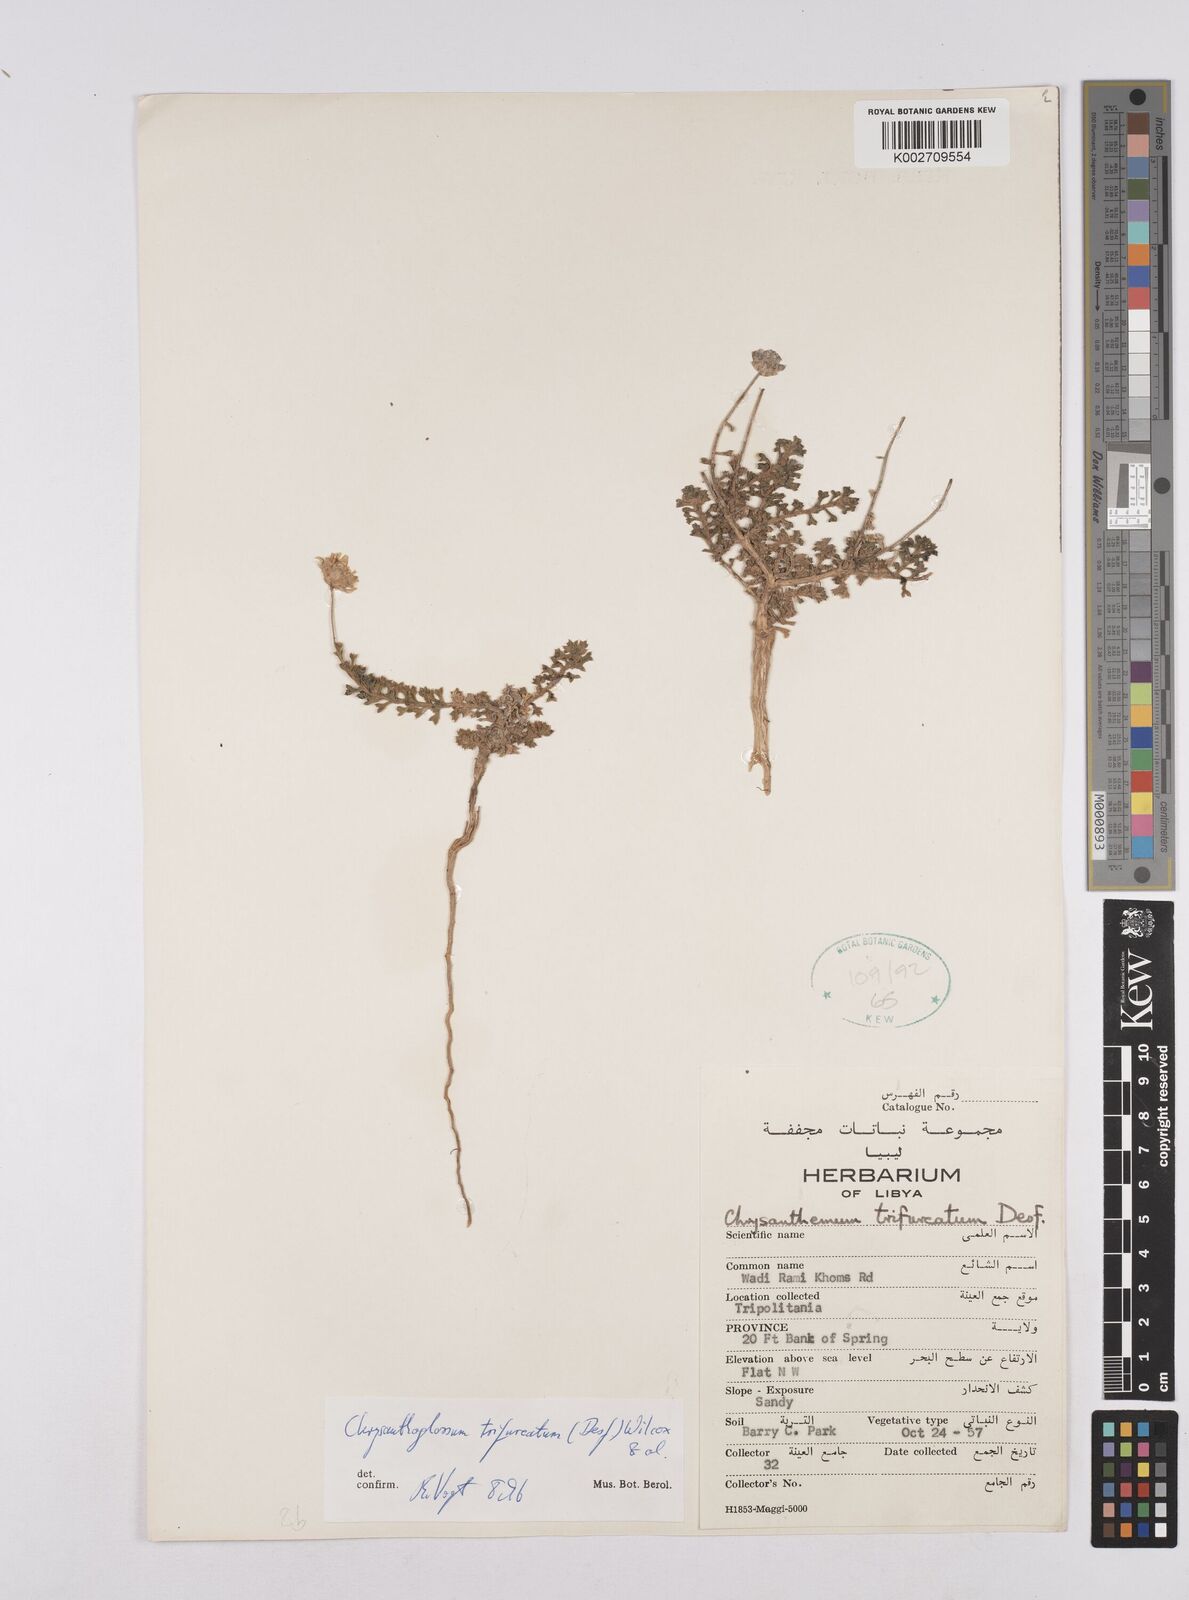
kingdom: Plantae
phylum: Tracheophyta
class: Magnoliopsida
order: Asterales
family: Asteraceae
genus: Chrysanthoglossum
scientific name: Chrysanthoglossum trifurcatum
